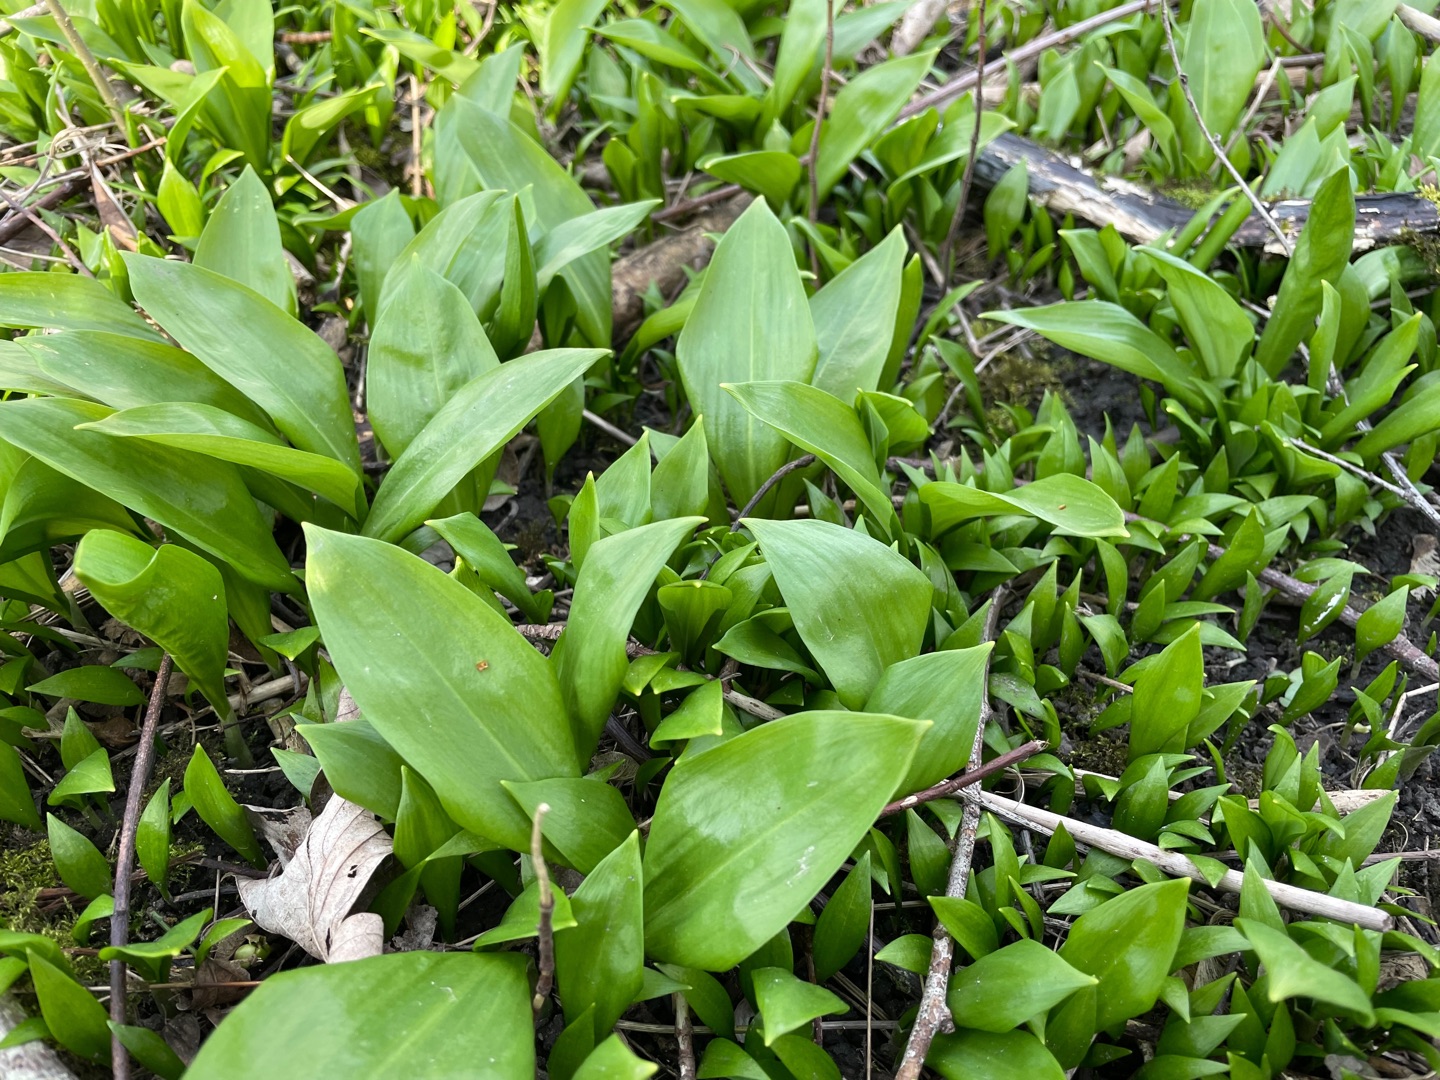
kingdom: Plantae
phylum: Tracheophyta
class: Liliopsida
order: Asparagales
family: Amaryllidaceae
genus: Allium
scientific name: Allium ursinum
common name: Rams-løg
